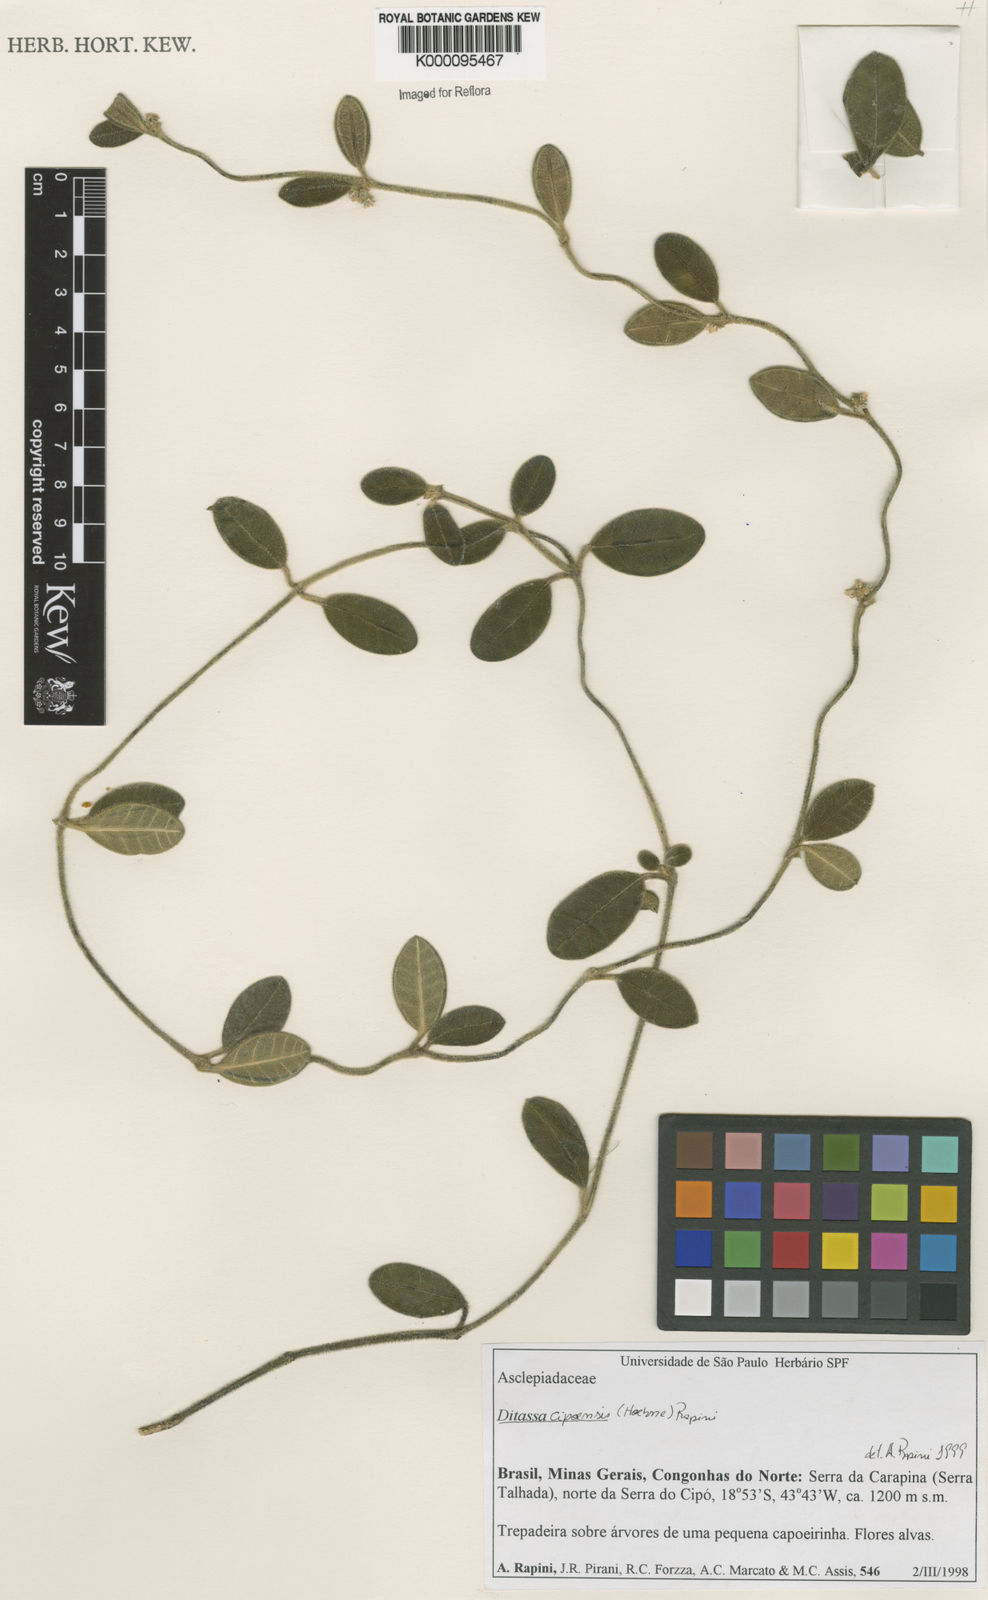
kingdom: Plantae
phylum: Tracheophyta
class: Magnoliopsida
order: Gentianales
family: Apocynaceae
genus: Ditassa
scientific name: Ditassa cipoensis
